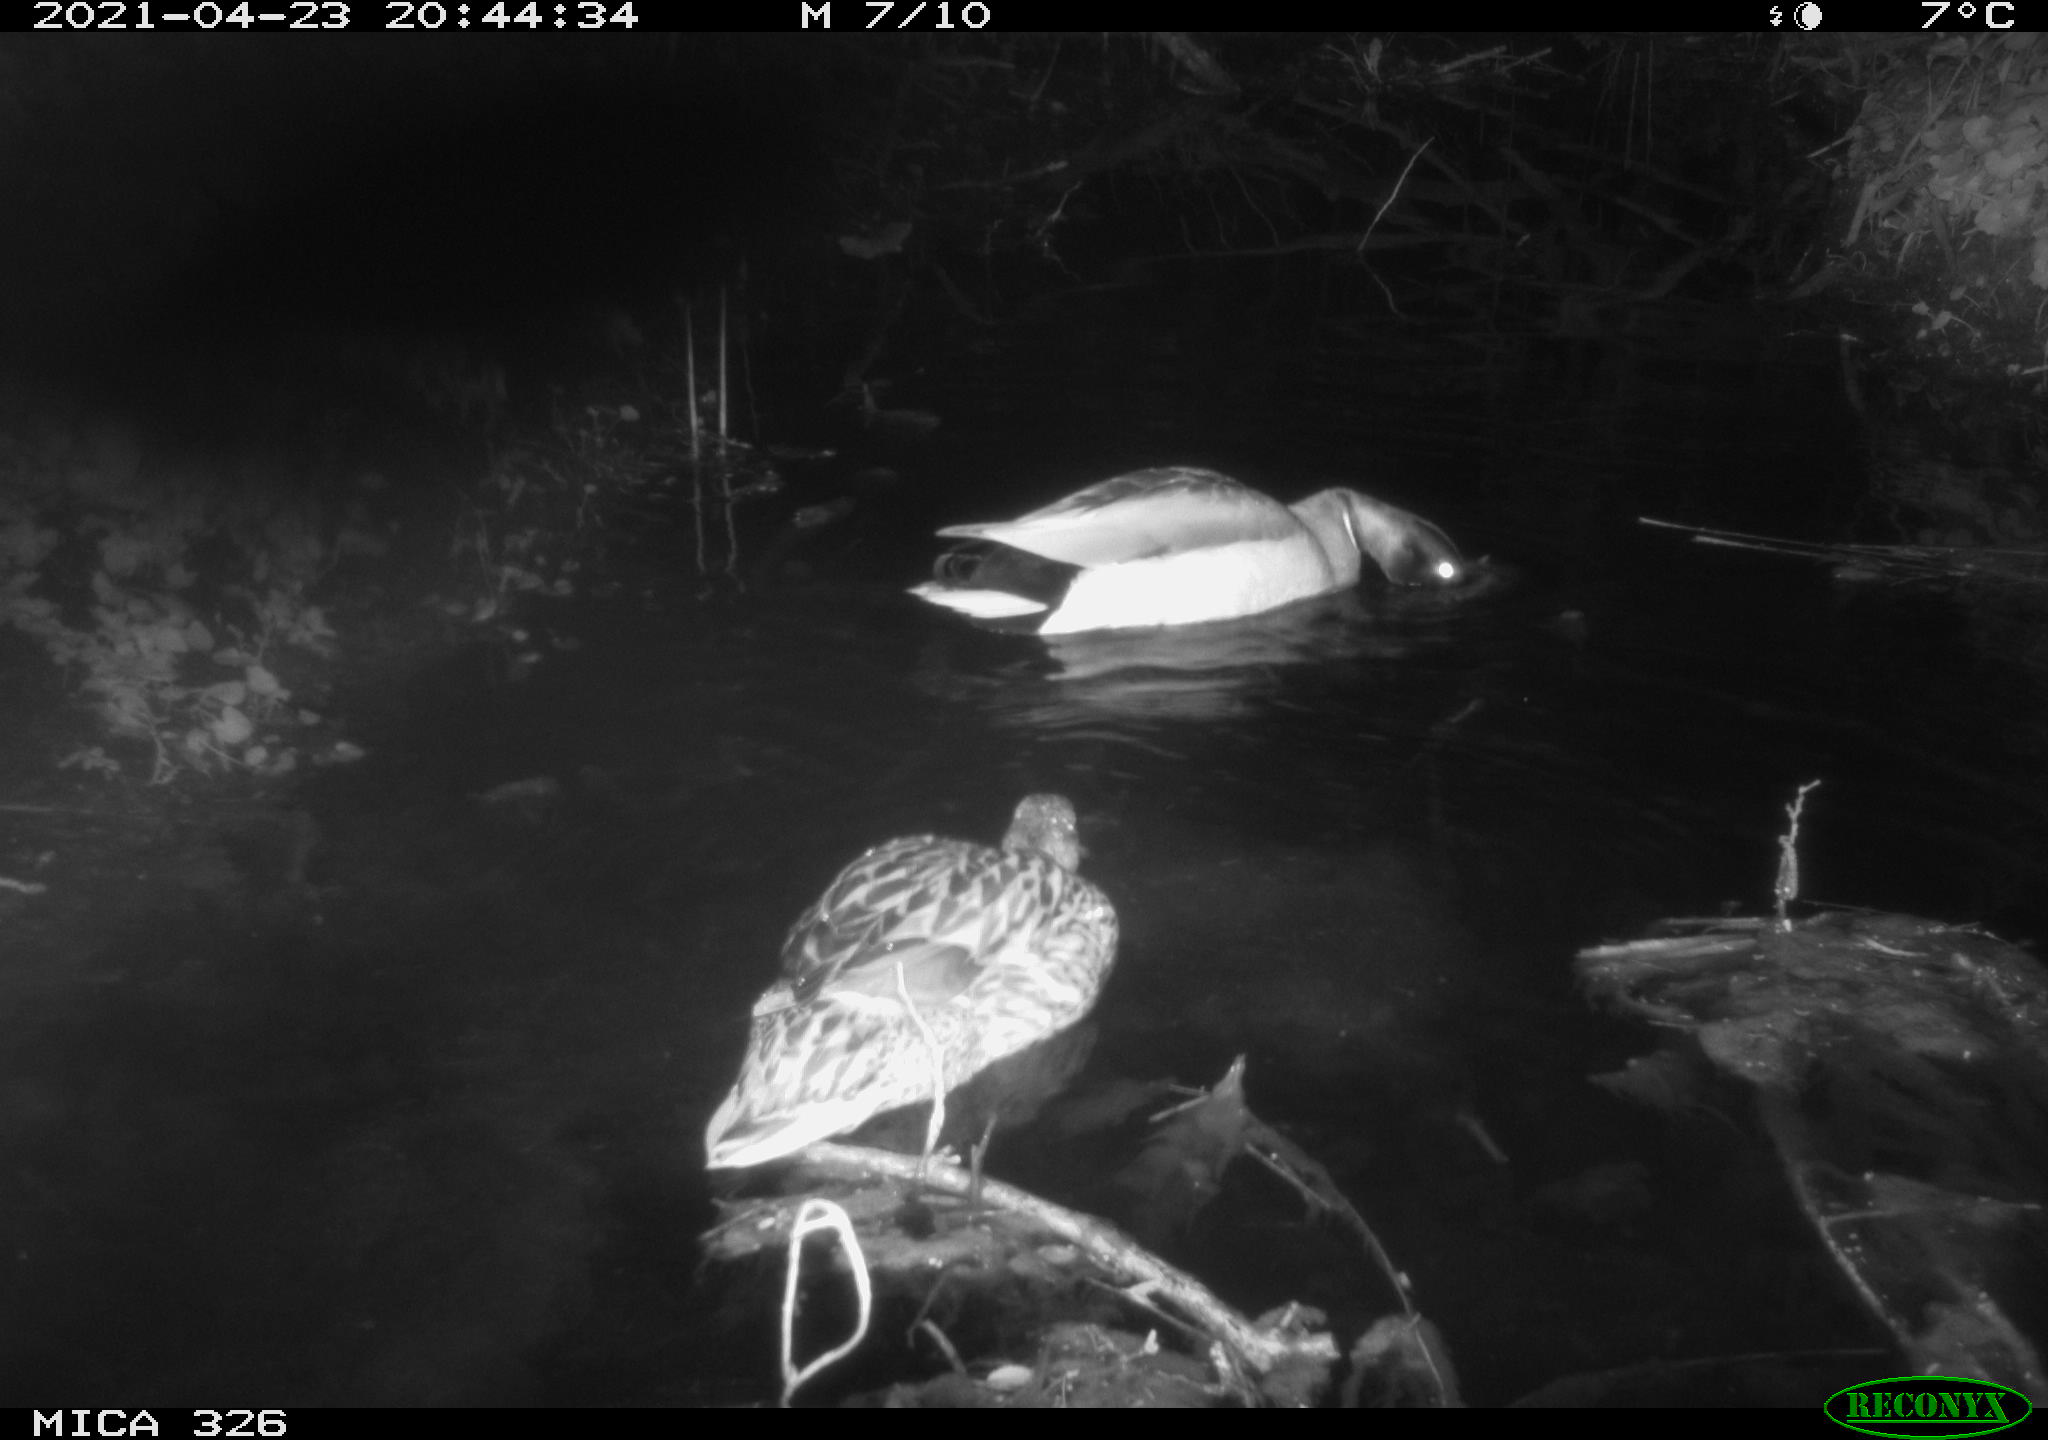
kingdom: Animalia
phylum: Chordata
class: Aves
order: Anseriformes
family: Anatidae
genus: Anas
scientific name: Anas platyrhynchos
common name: Mallard
